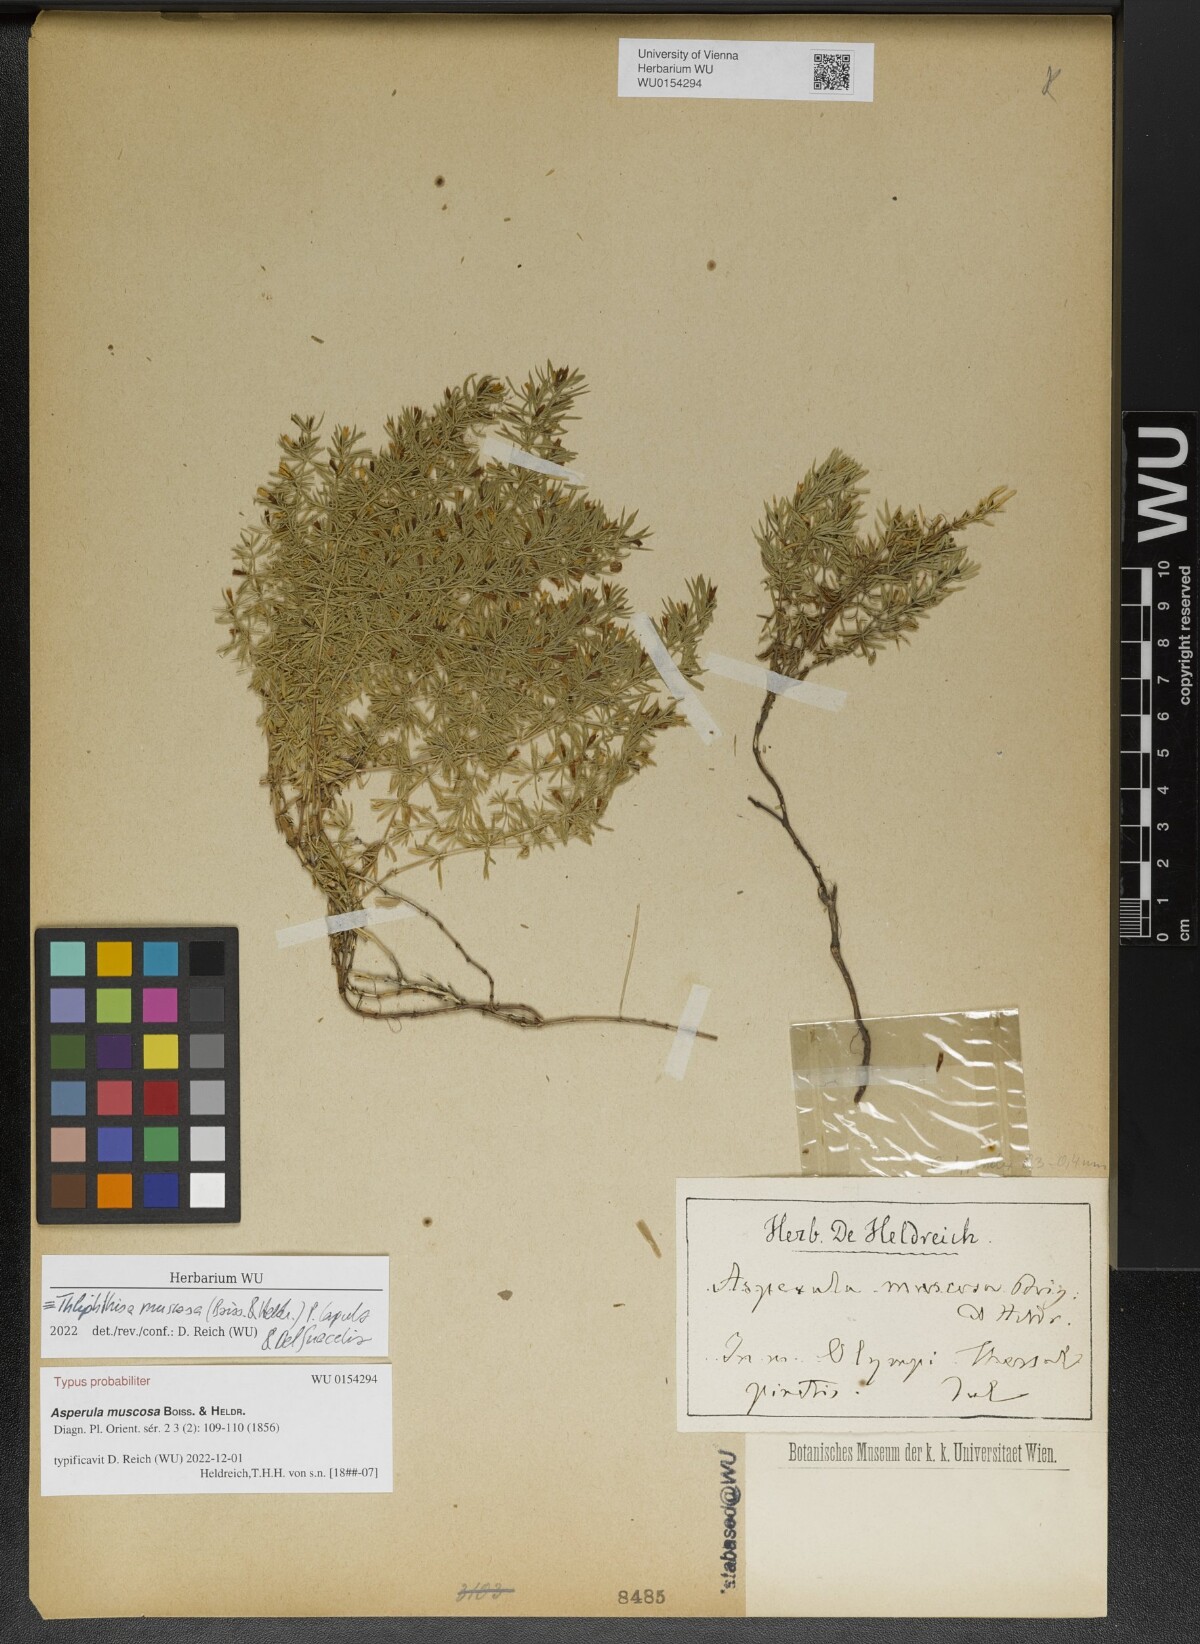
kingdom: Plantae
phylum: Tracheophyta
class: Magnoliopsida
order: Gentianales
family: Rubiaceae
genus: Thliphthisa
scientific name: Thliphthisa muscosa
